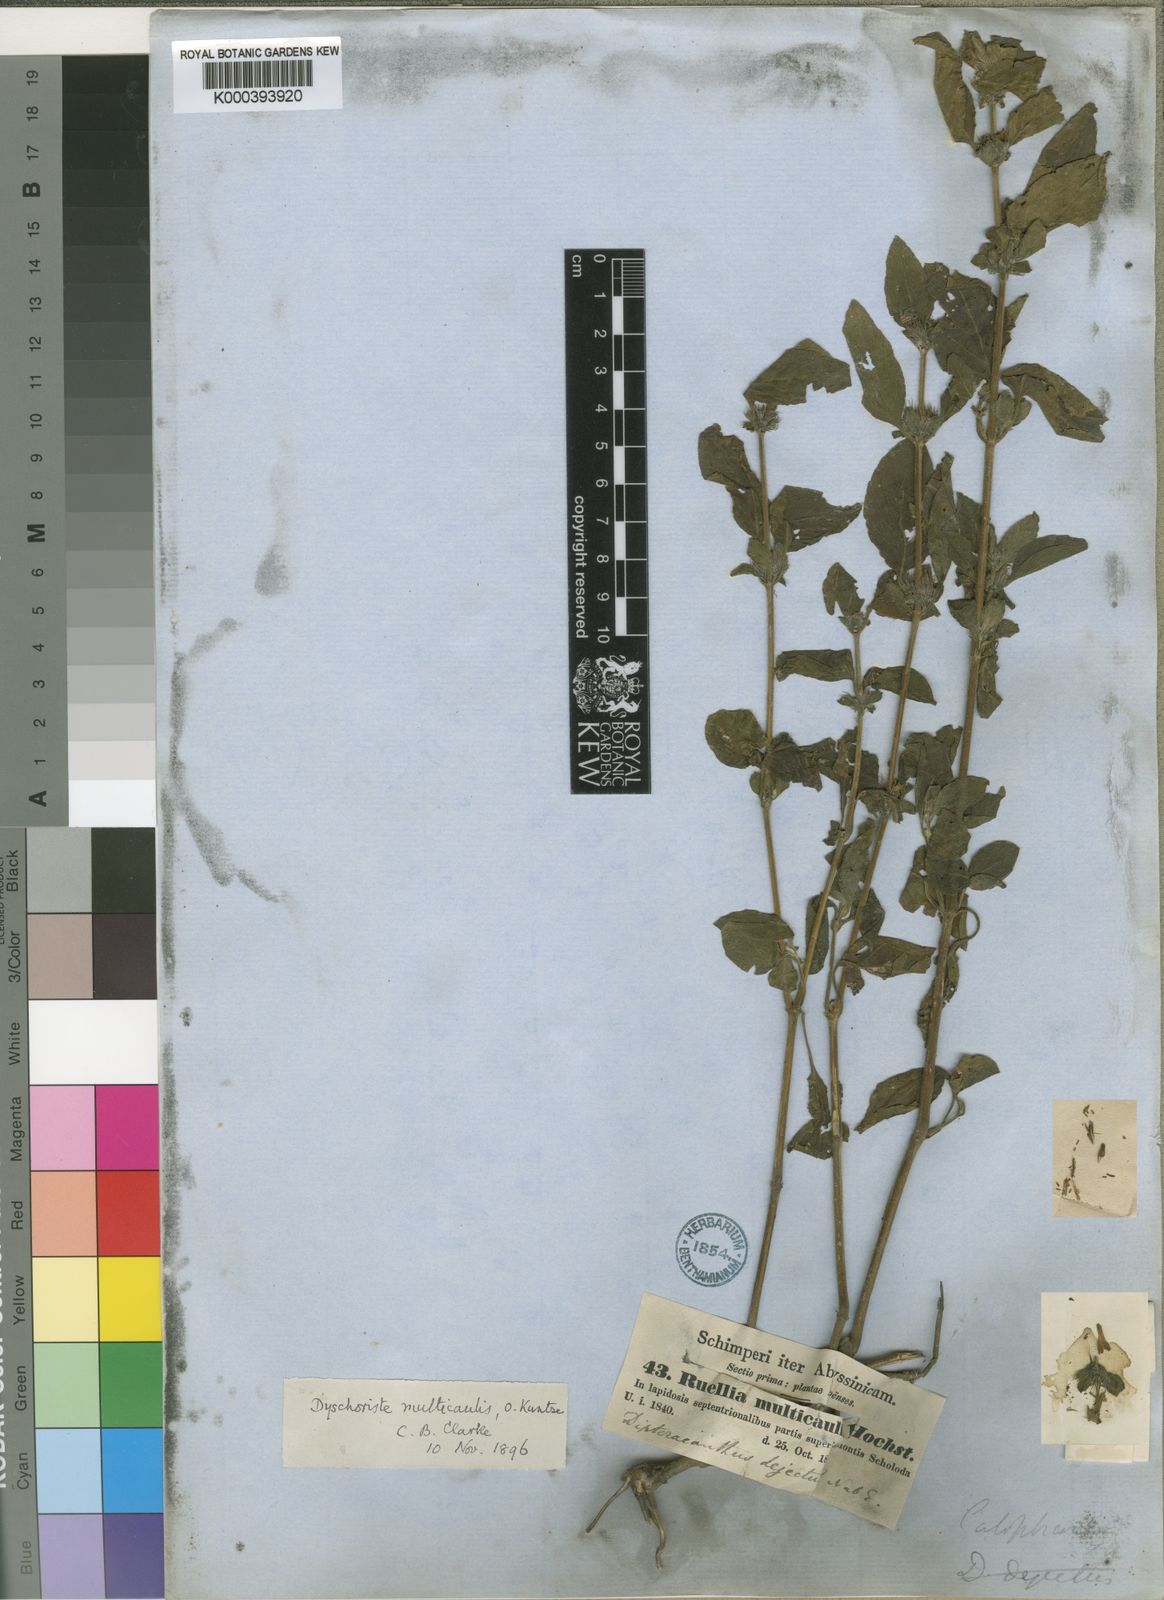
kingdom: Plantae
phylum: Tracheophyta
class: Magnoliopsida
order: Lamiales
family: Acanthaceae
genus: Dyschoriste
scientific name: Dyschoriste multicaulis
